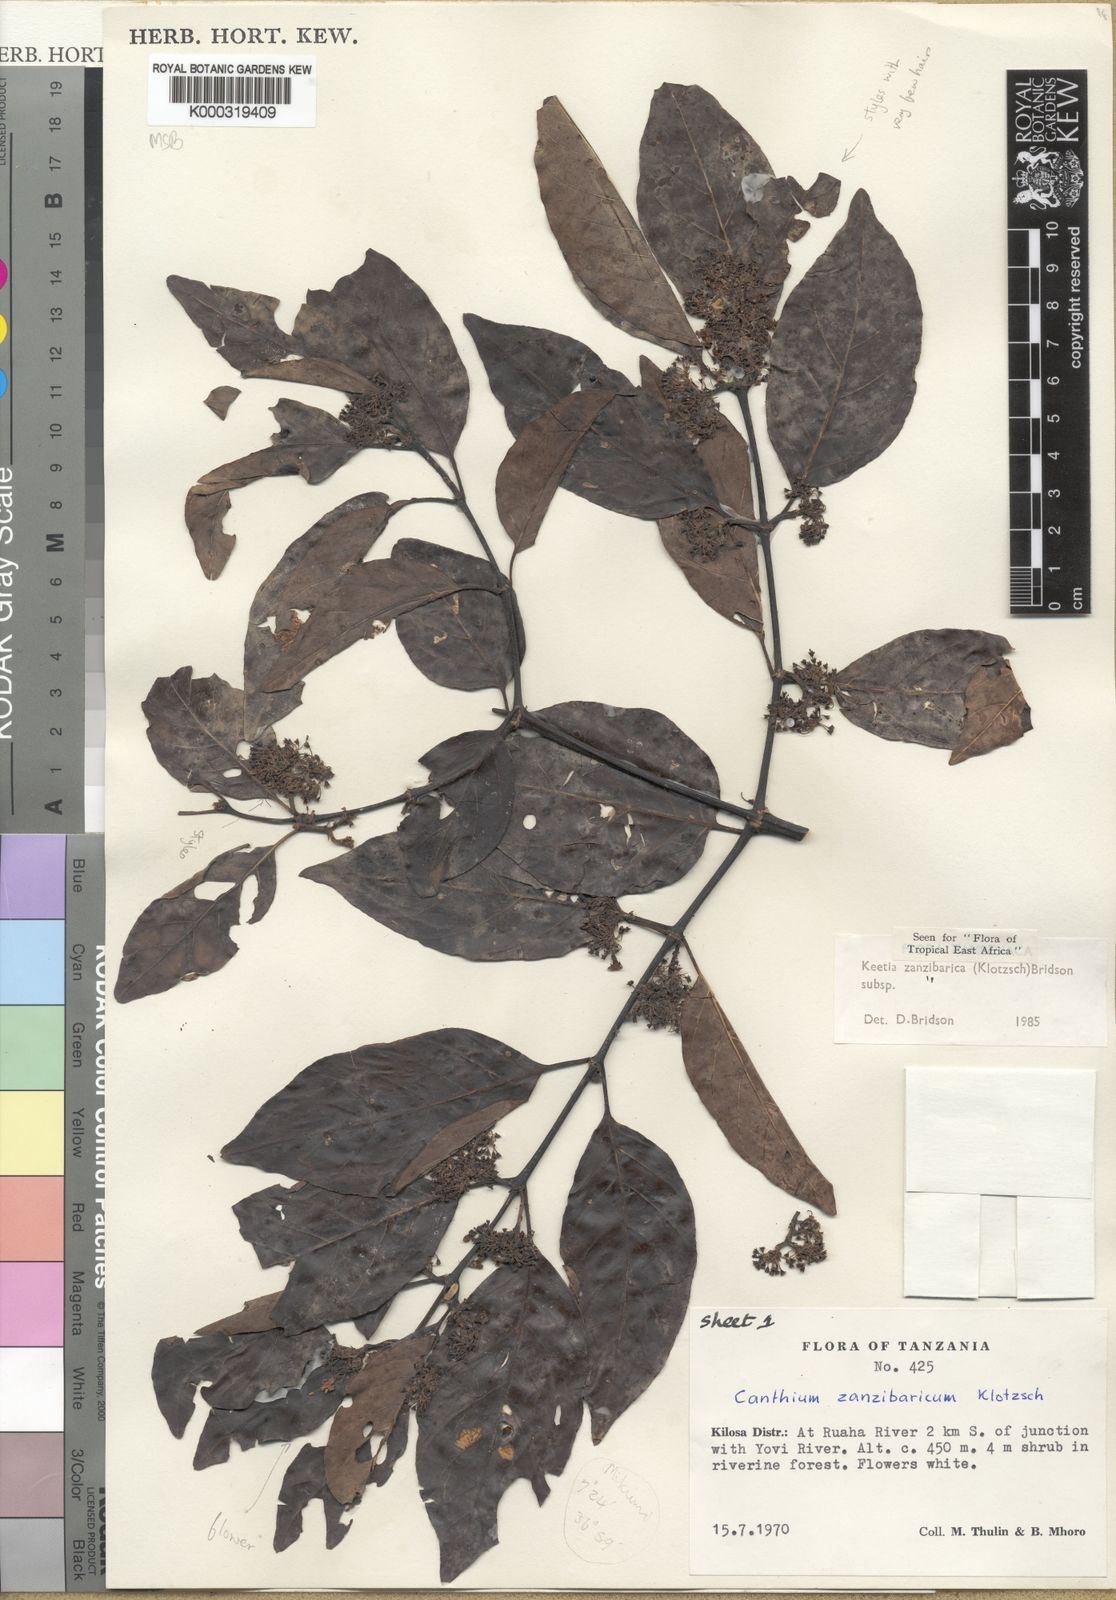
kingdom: Plantae
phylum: Tracheophyta
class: Magnoliopsida
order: Gentianales
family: Rubiaceae
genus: Keetia
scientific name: Keetia zanzibarica
